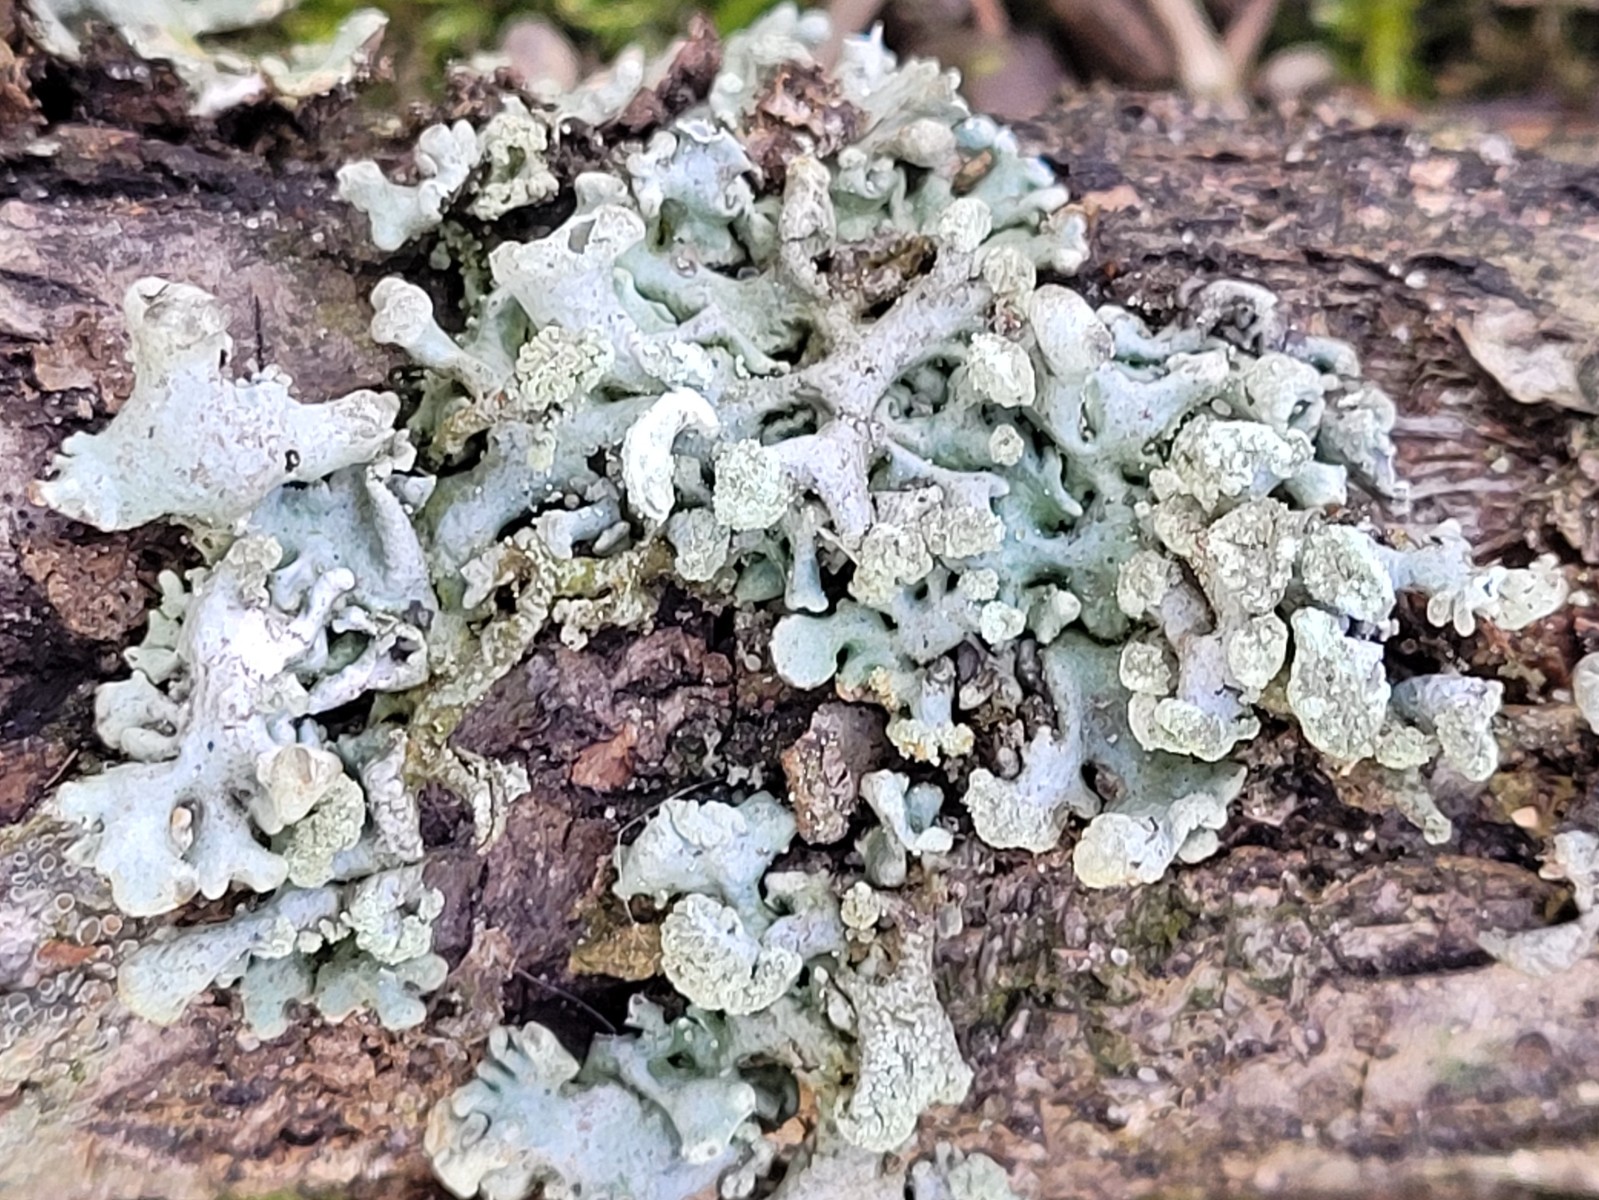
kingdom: Fungi
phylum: Ascomycota
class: Lecanoromycetes
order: Lecanorales
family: Parmeliaceae
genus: Hypogymnia
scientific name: Hypogymnia tubulosa
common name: finger-kvistlav
